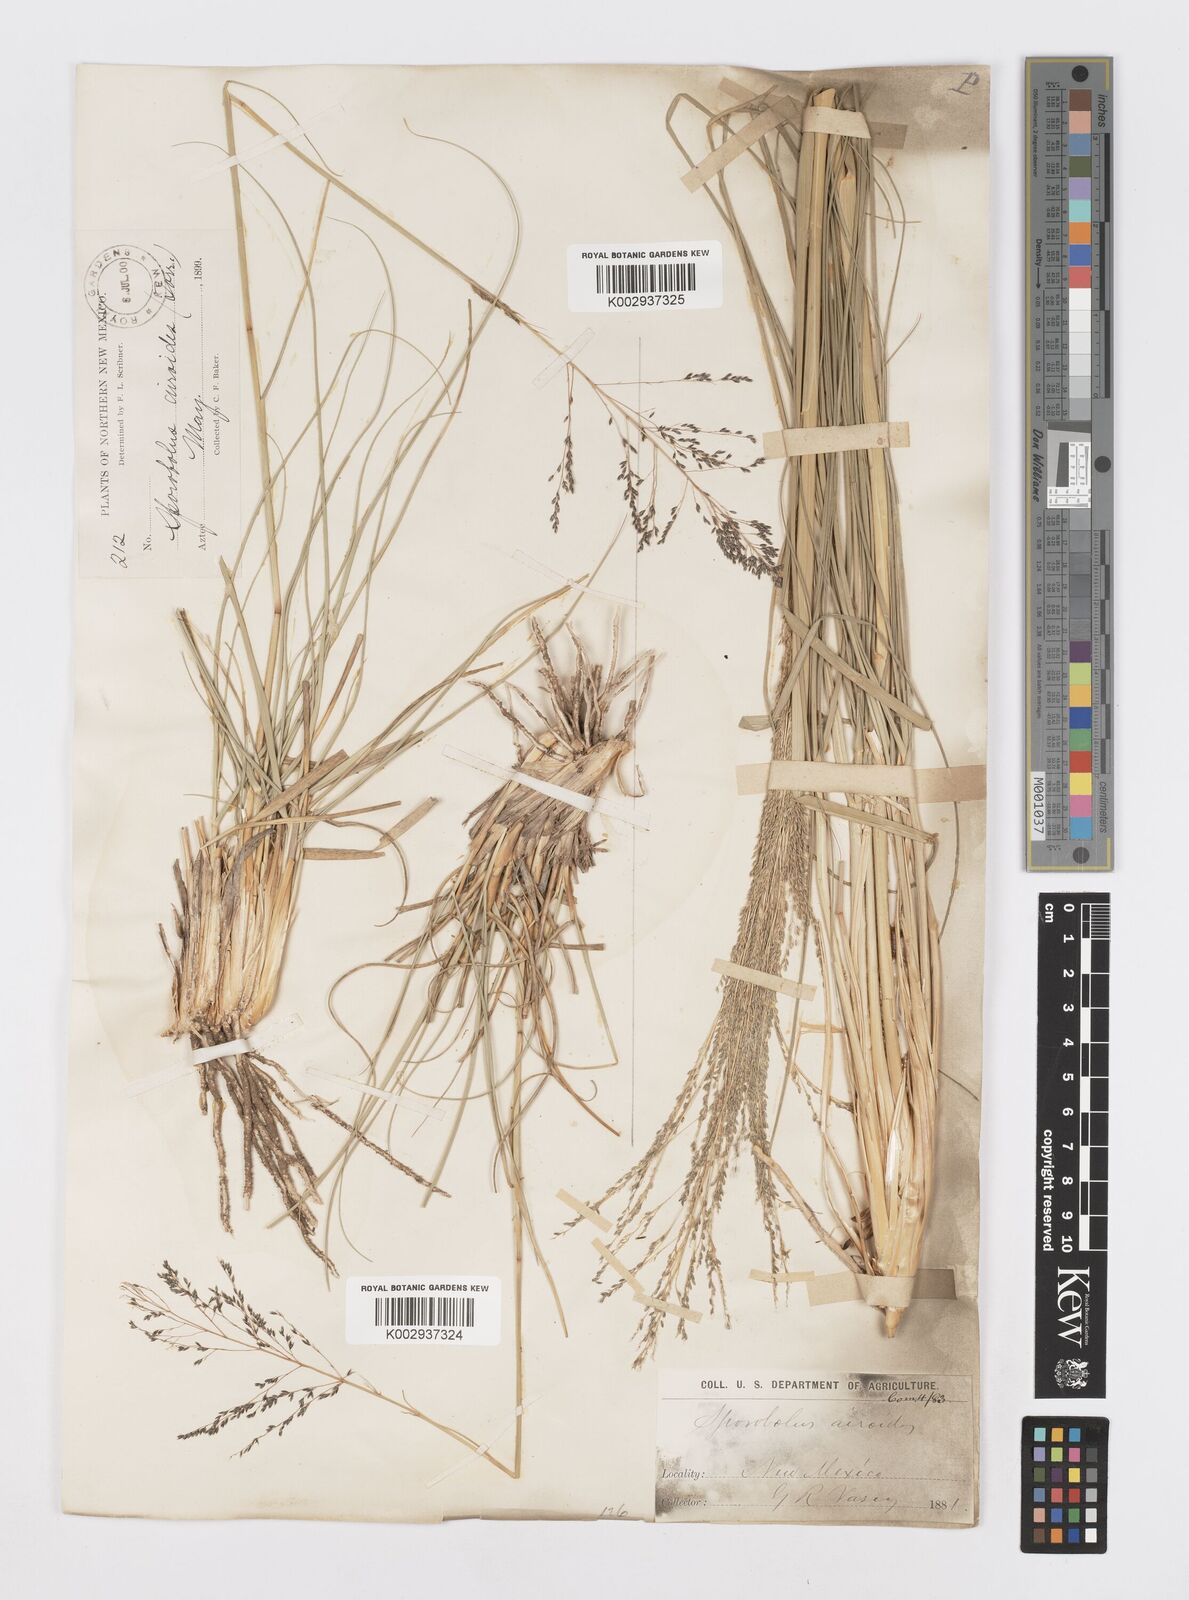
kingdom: Plantae
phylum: Tracheophyta
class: Liliopsida
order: Poales
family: Poaceae
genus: Sporobolus
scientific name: Sporobolus airoides
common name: Alkali sacaton
